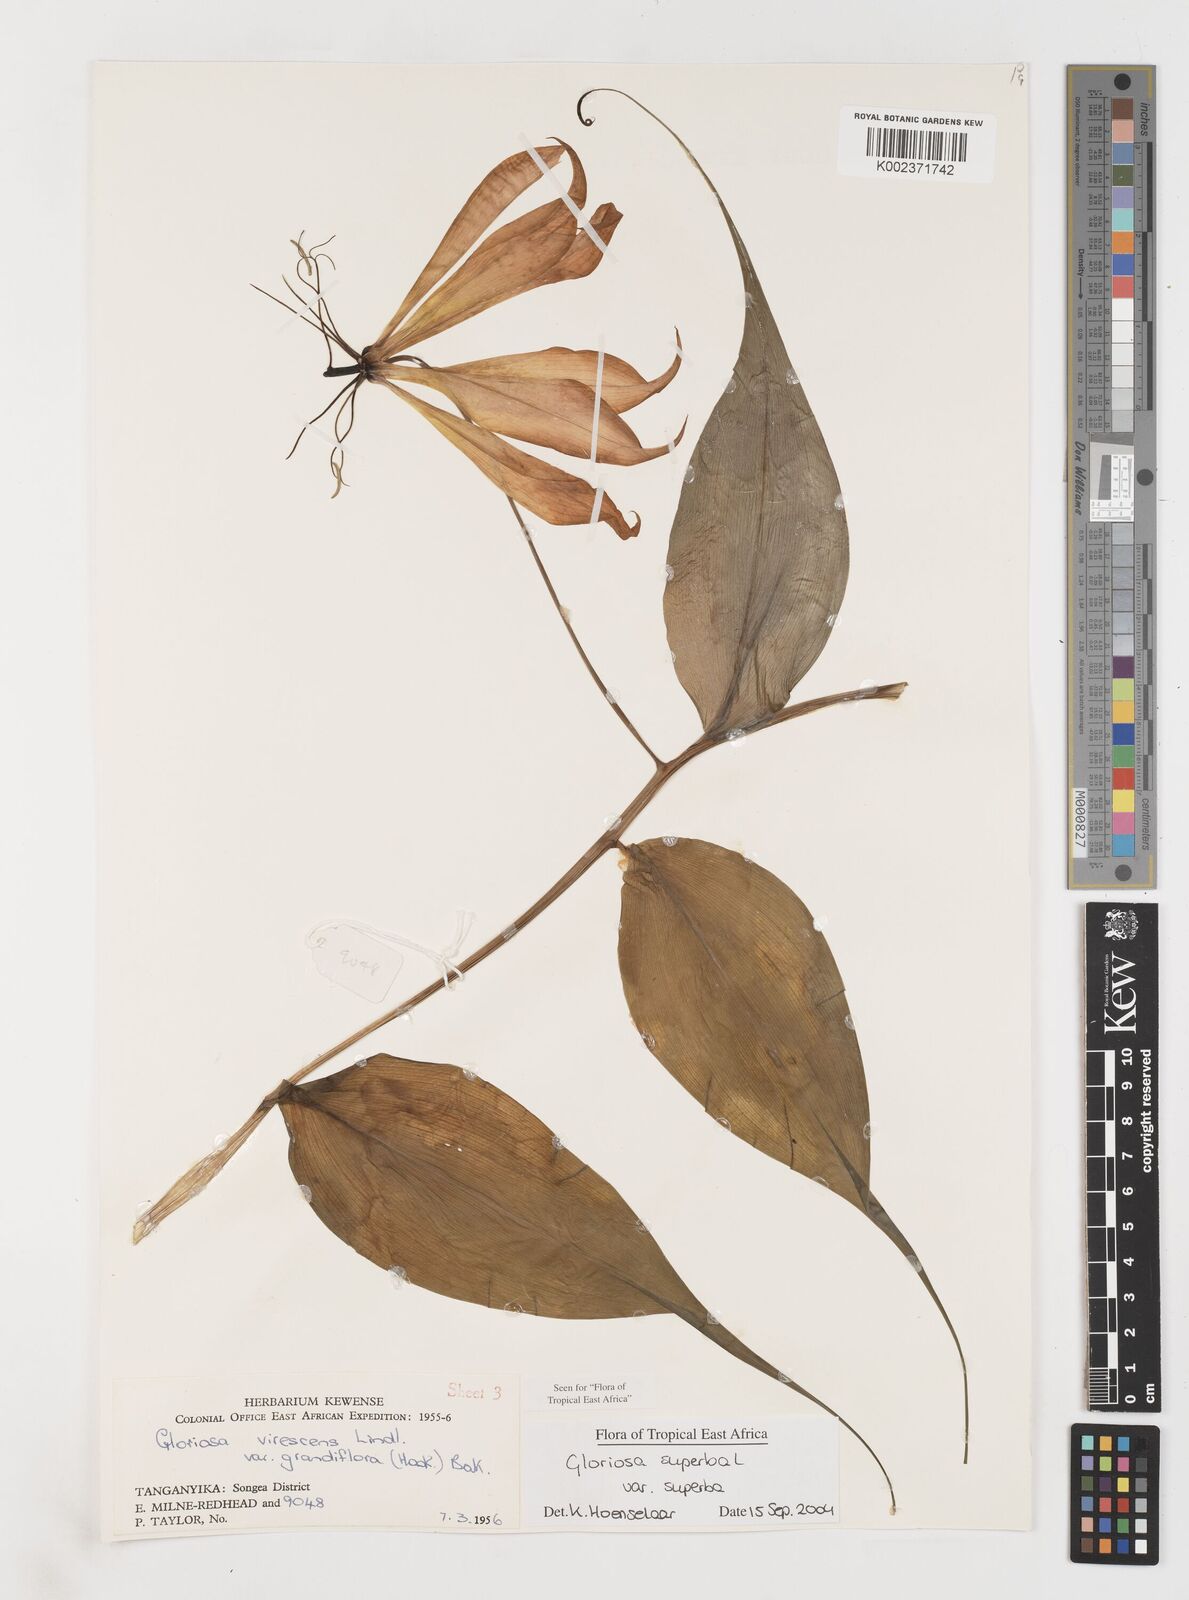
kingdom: Plantae
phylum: Tracheophyta
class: Liliopsida
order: Liliales
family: Colchicaceae
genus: Gloriosa
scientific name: Gloriosa simplex
